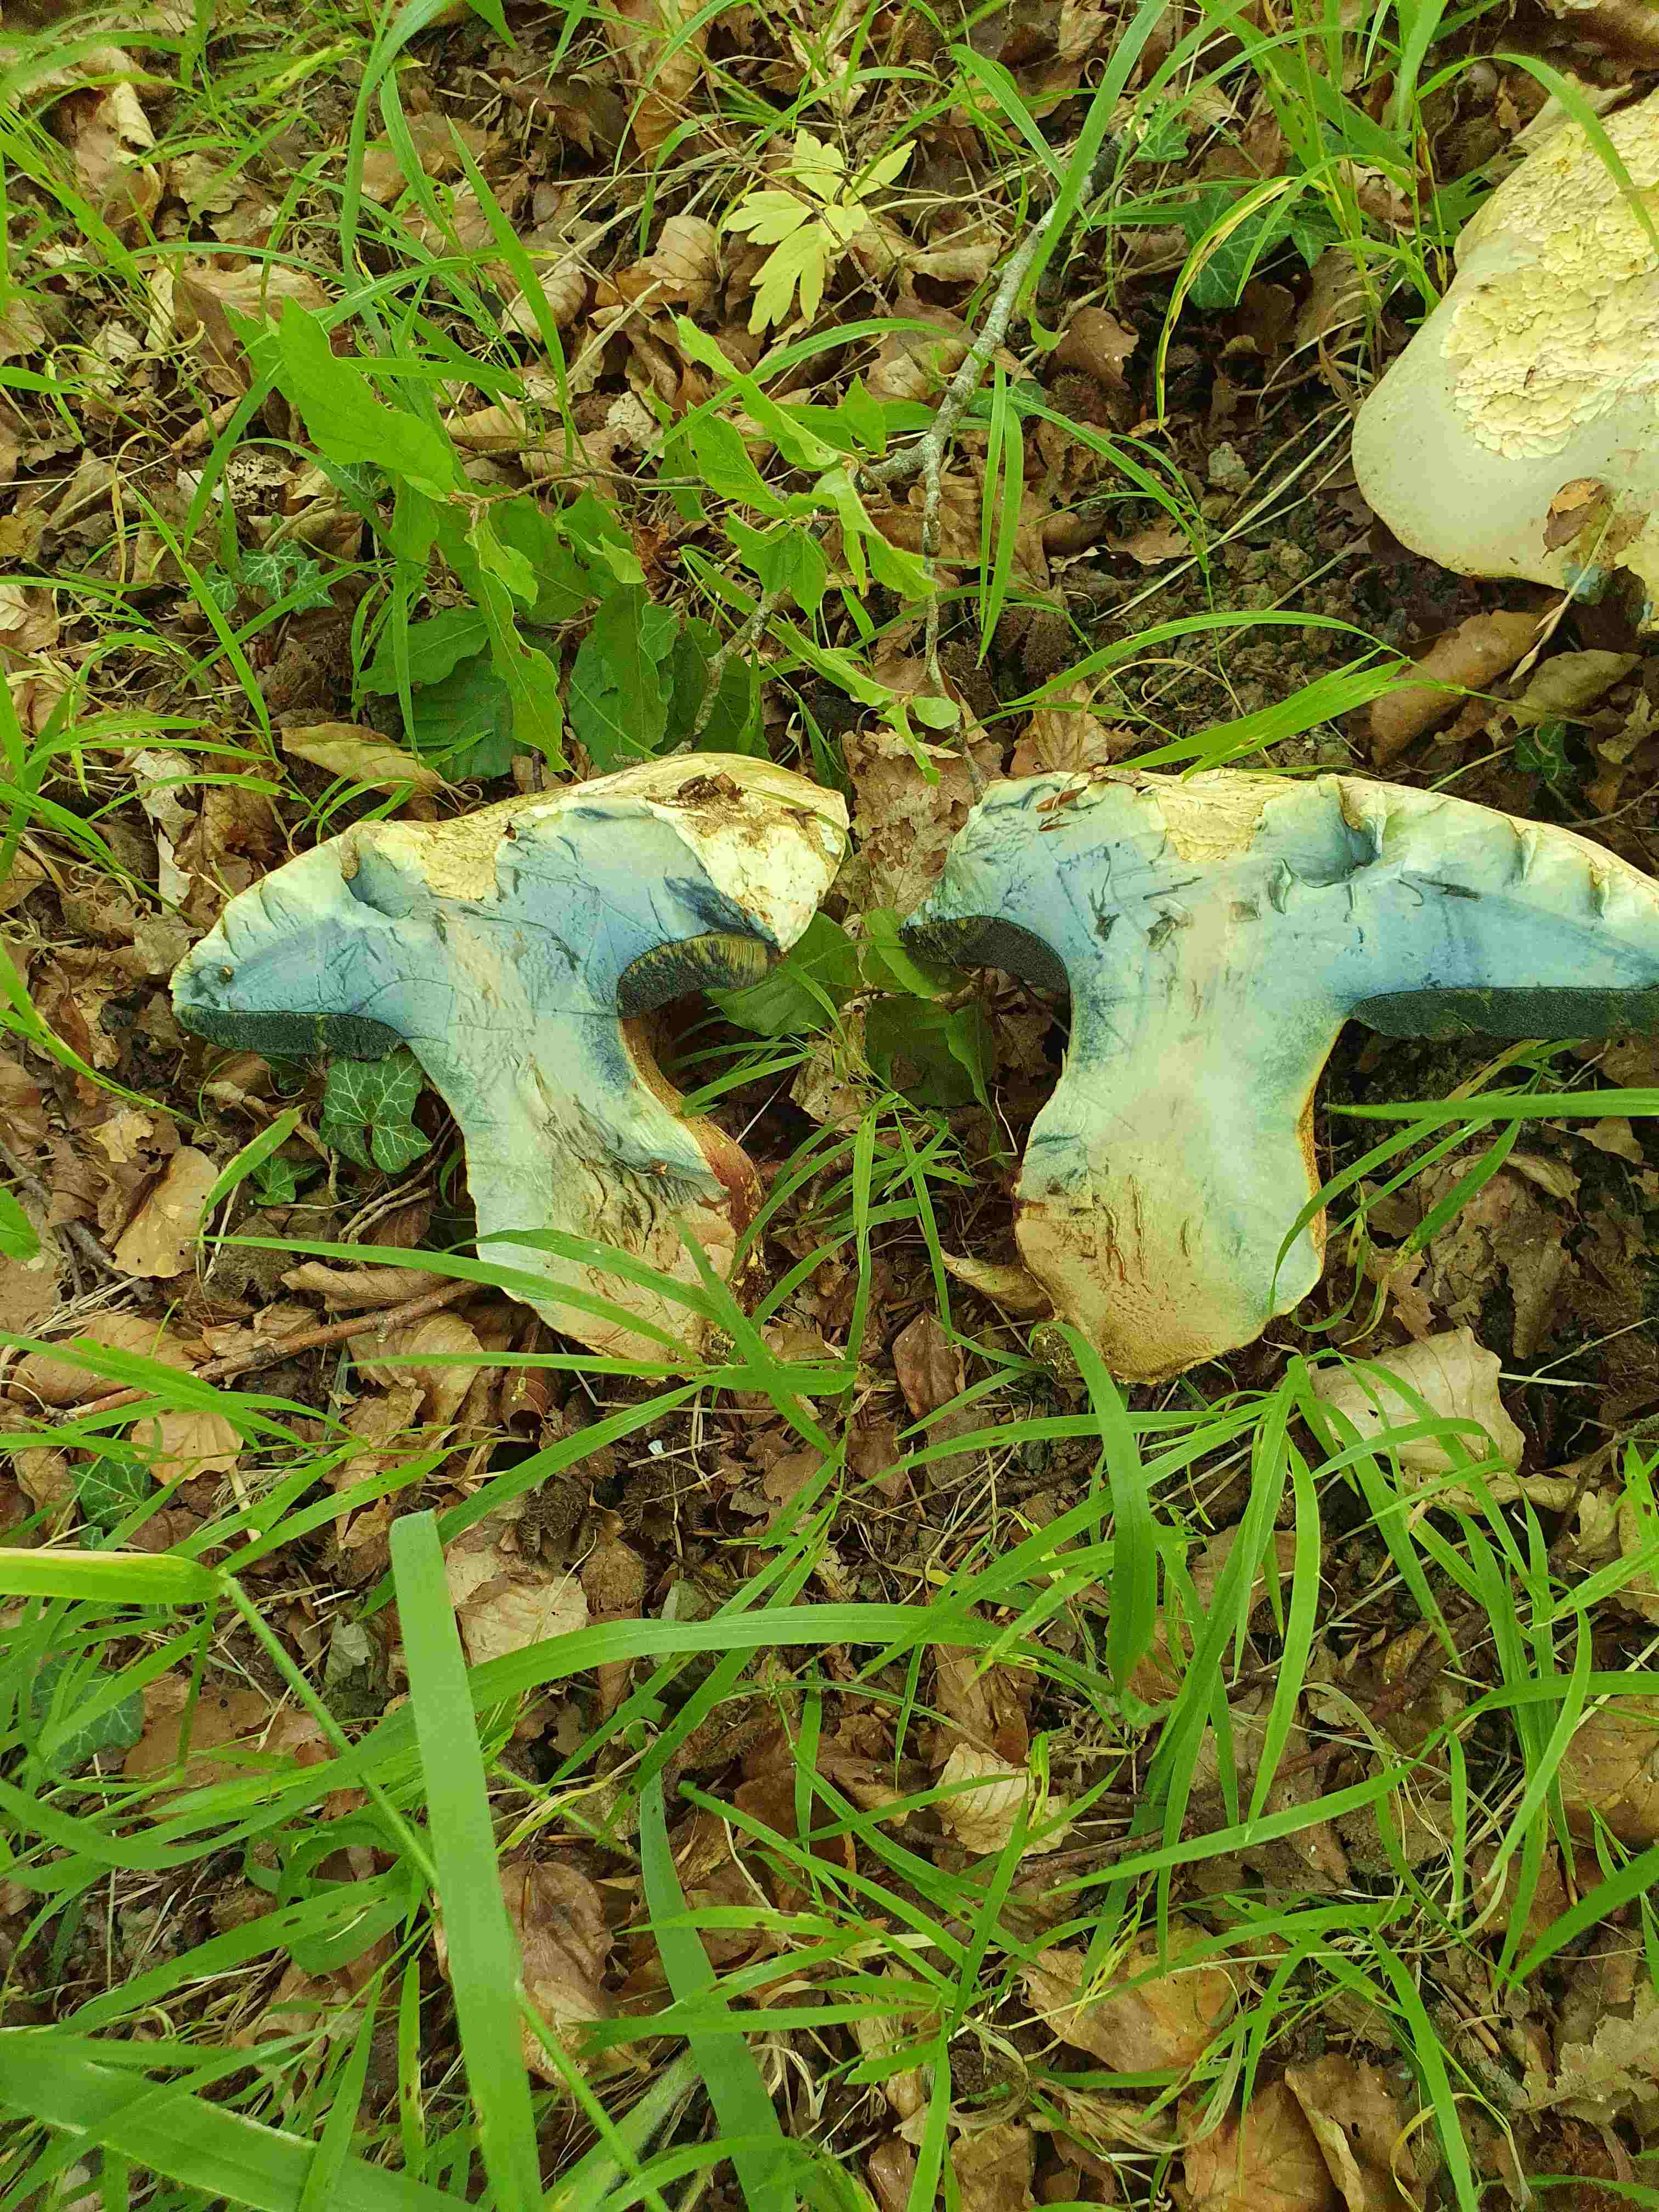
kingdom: Fungi
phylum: Basidiomycota
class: Agaricomycetes
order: Boletales
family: Boletaceae
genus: Rubroboletus
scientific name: Rubroboletus satanas
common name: Satans rørhat
